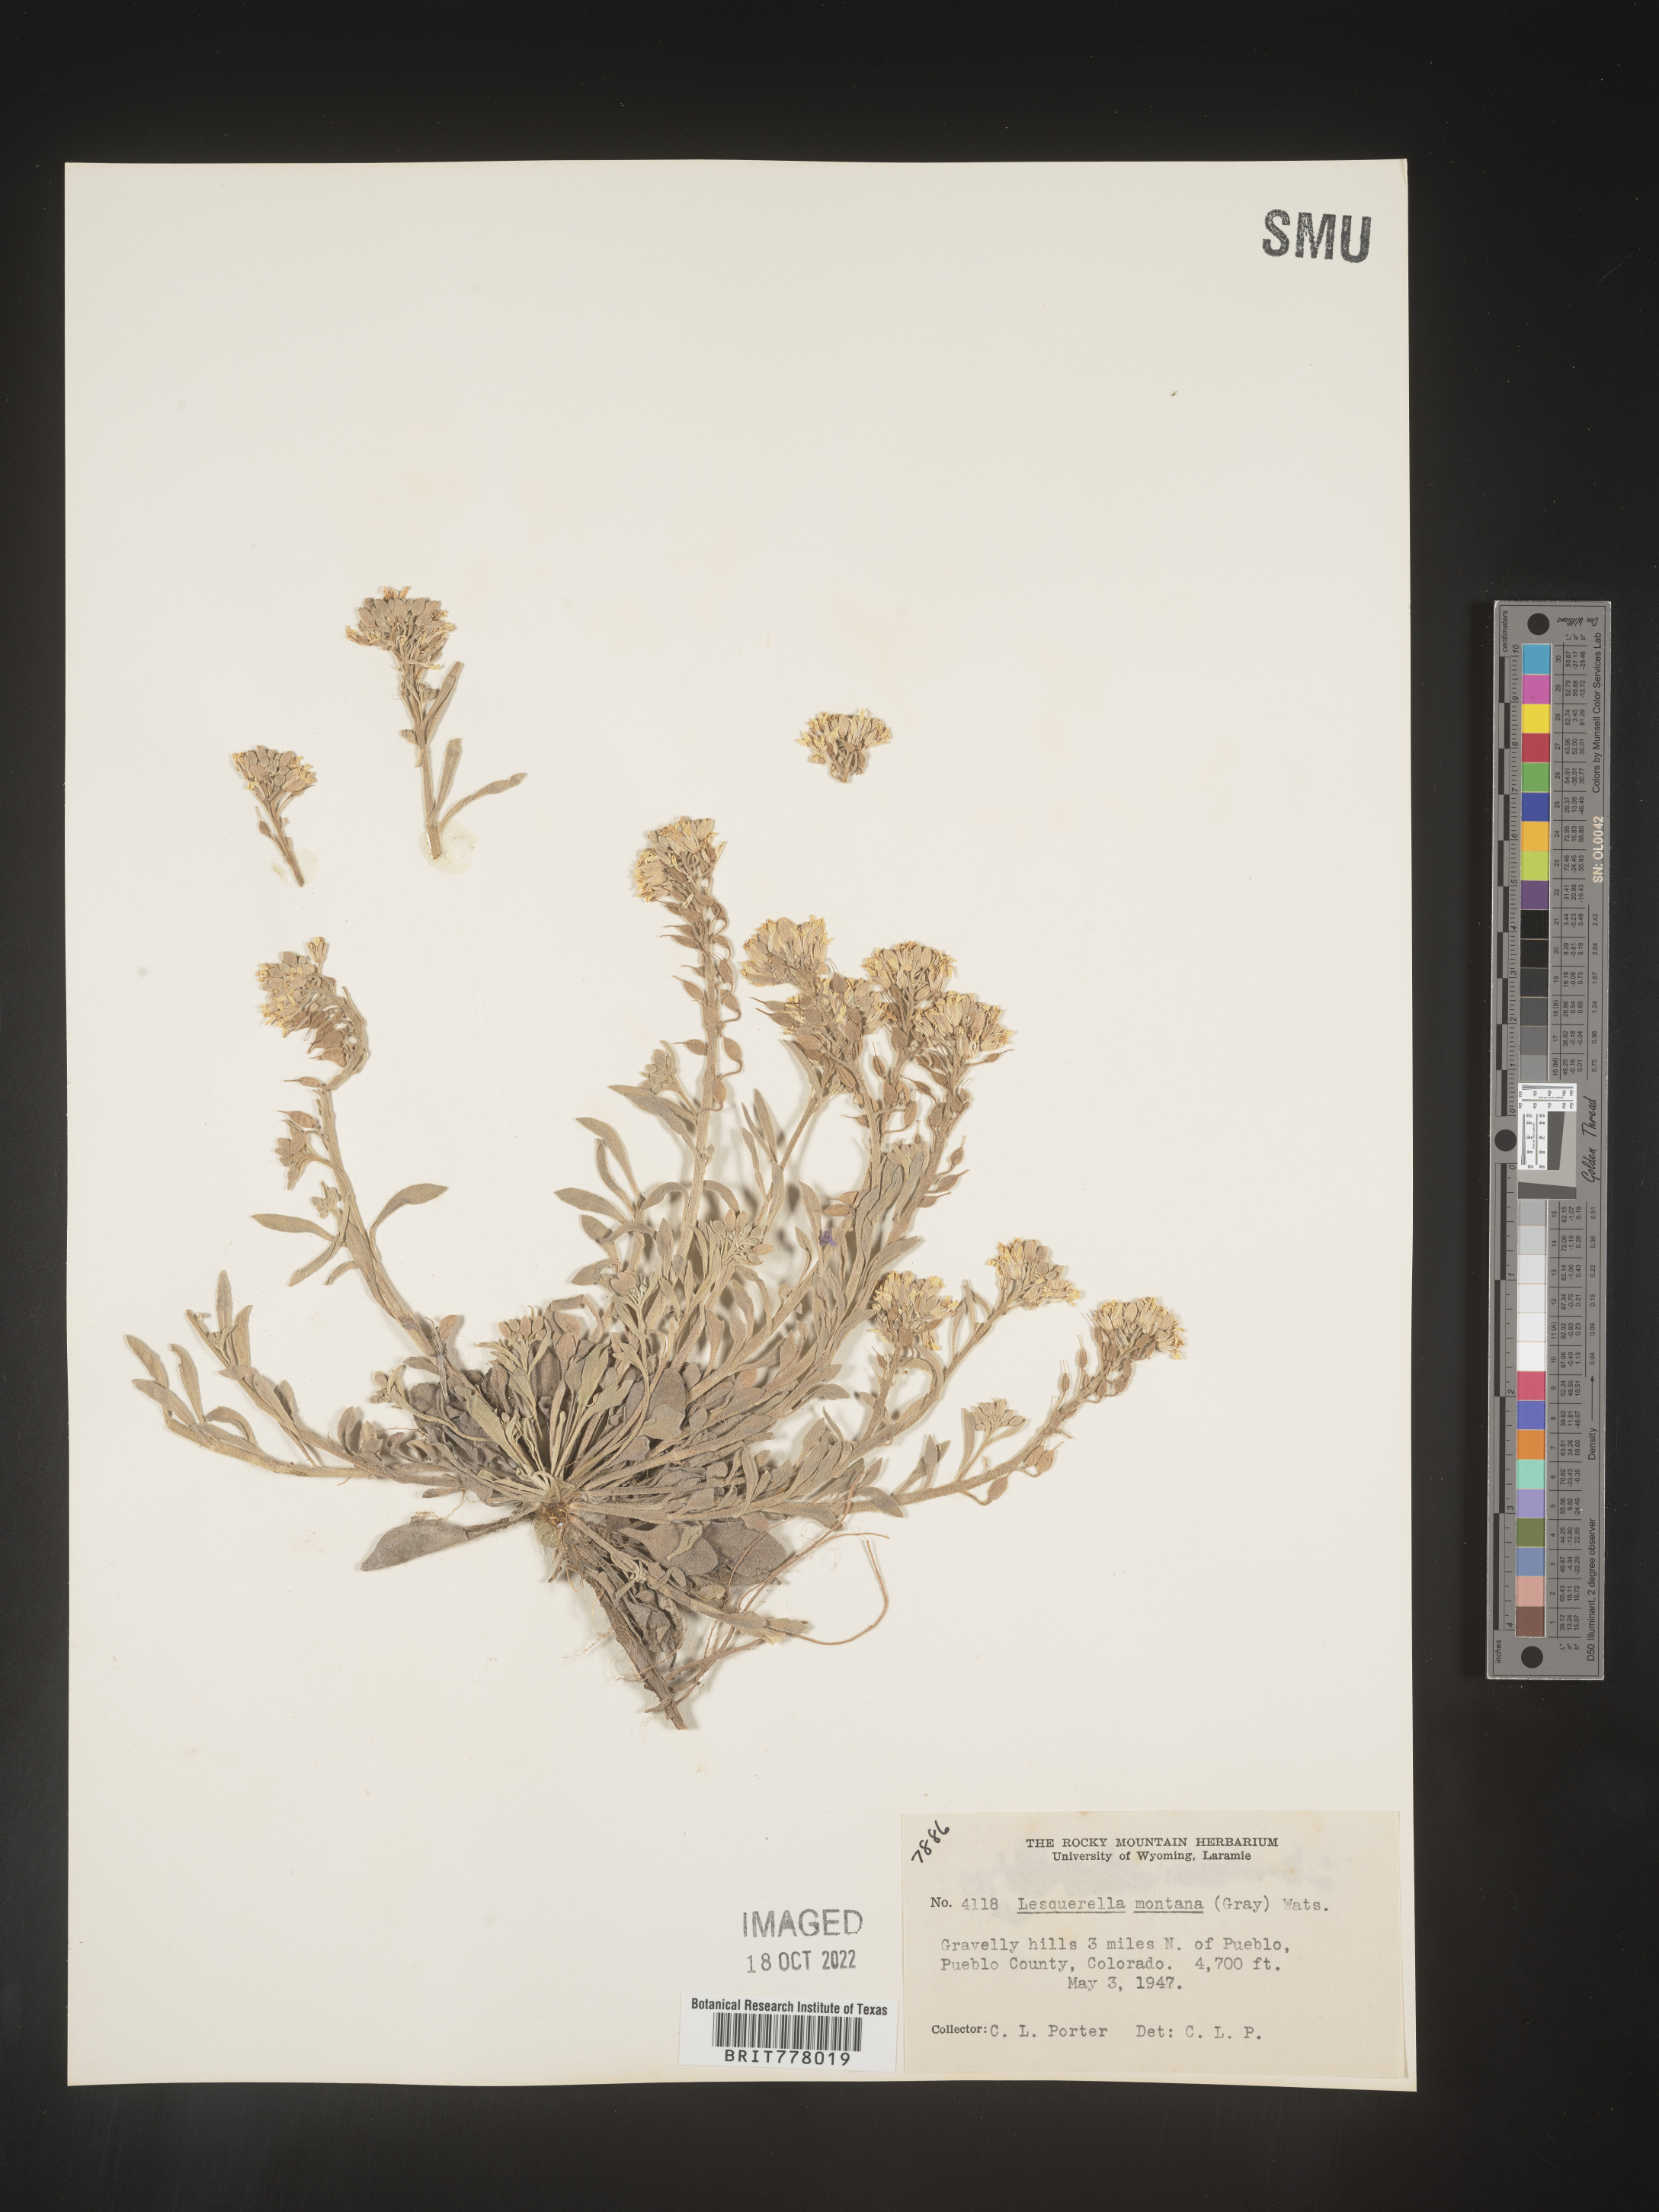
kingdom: Chromista
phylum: Cercozoa
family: Psammonobiotidae
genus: Lesquerella
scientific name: Lesquerella
